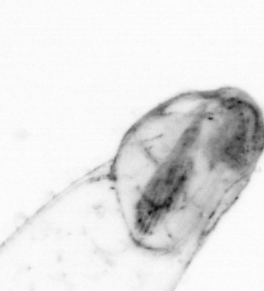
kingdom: Animalia
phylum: Chaetognatha
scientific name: Chaetognatha
